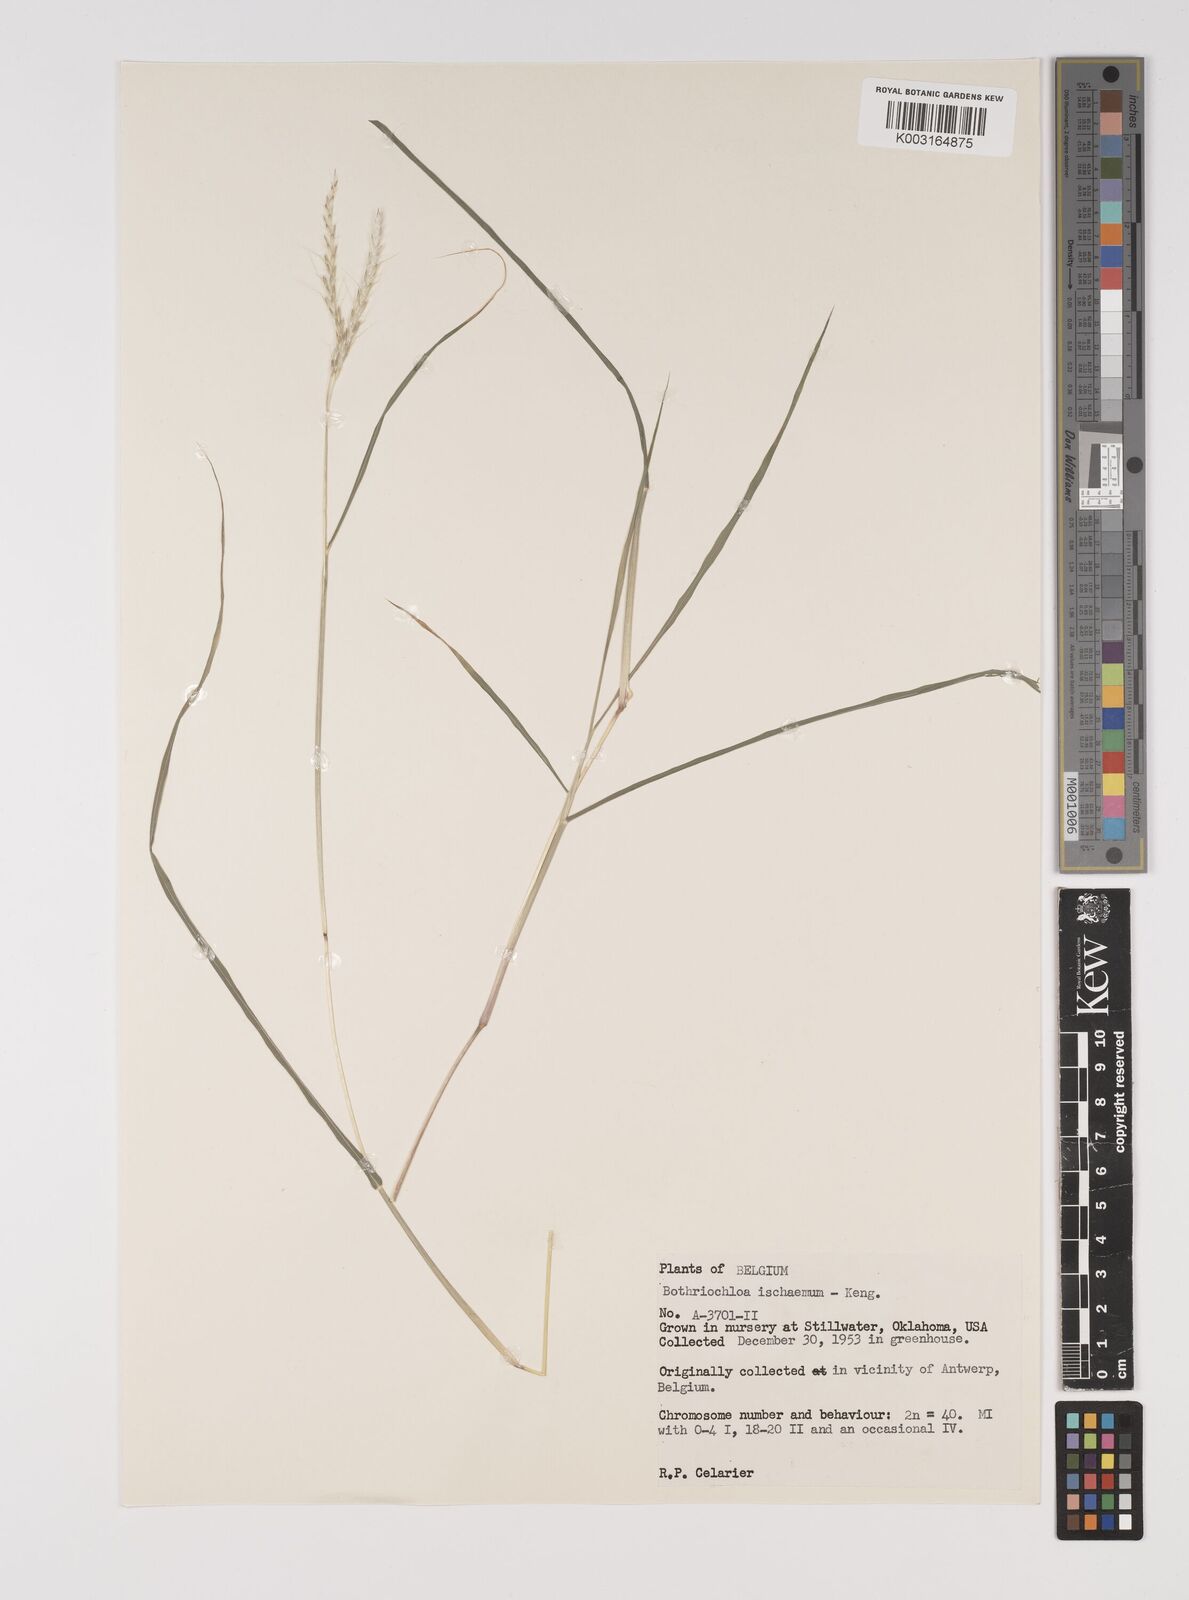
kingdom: Plantae
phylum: Tracheophyta
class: Liliopsida
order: Poales
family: Poaceae
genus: Bothriochloa
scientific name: Bothriochloa ischaemum
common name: Yellow bluestem
